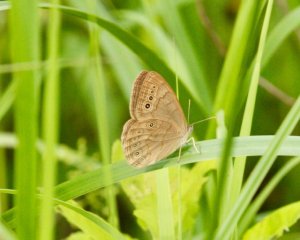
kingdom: Animalia
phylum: Arthropoda
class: Insecta
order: Lepidoptera
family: Nymphalidae
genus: Lethe
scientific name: Lethe eurydice
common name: Eyed Brown
